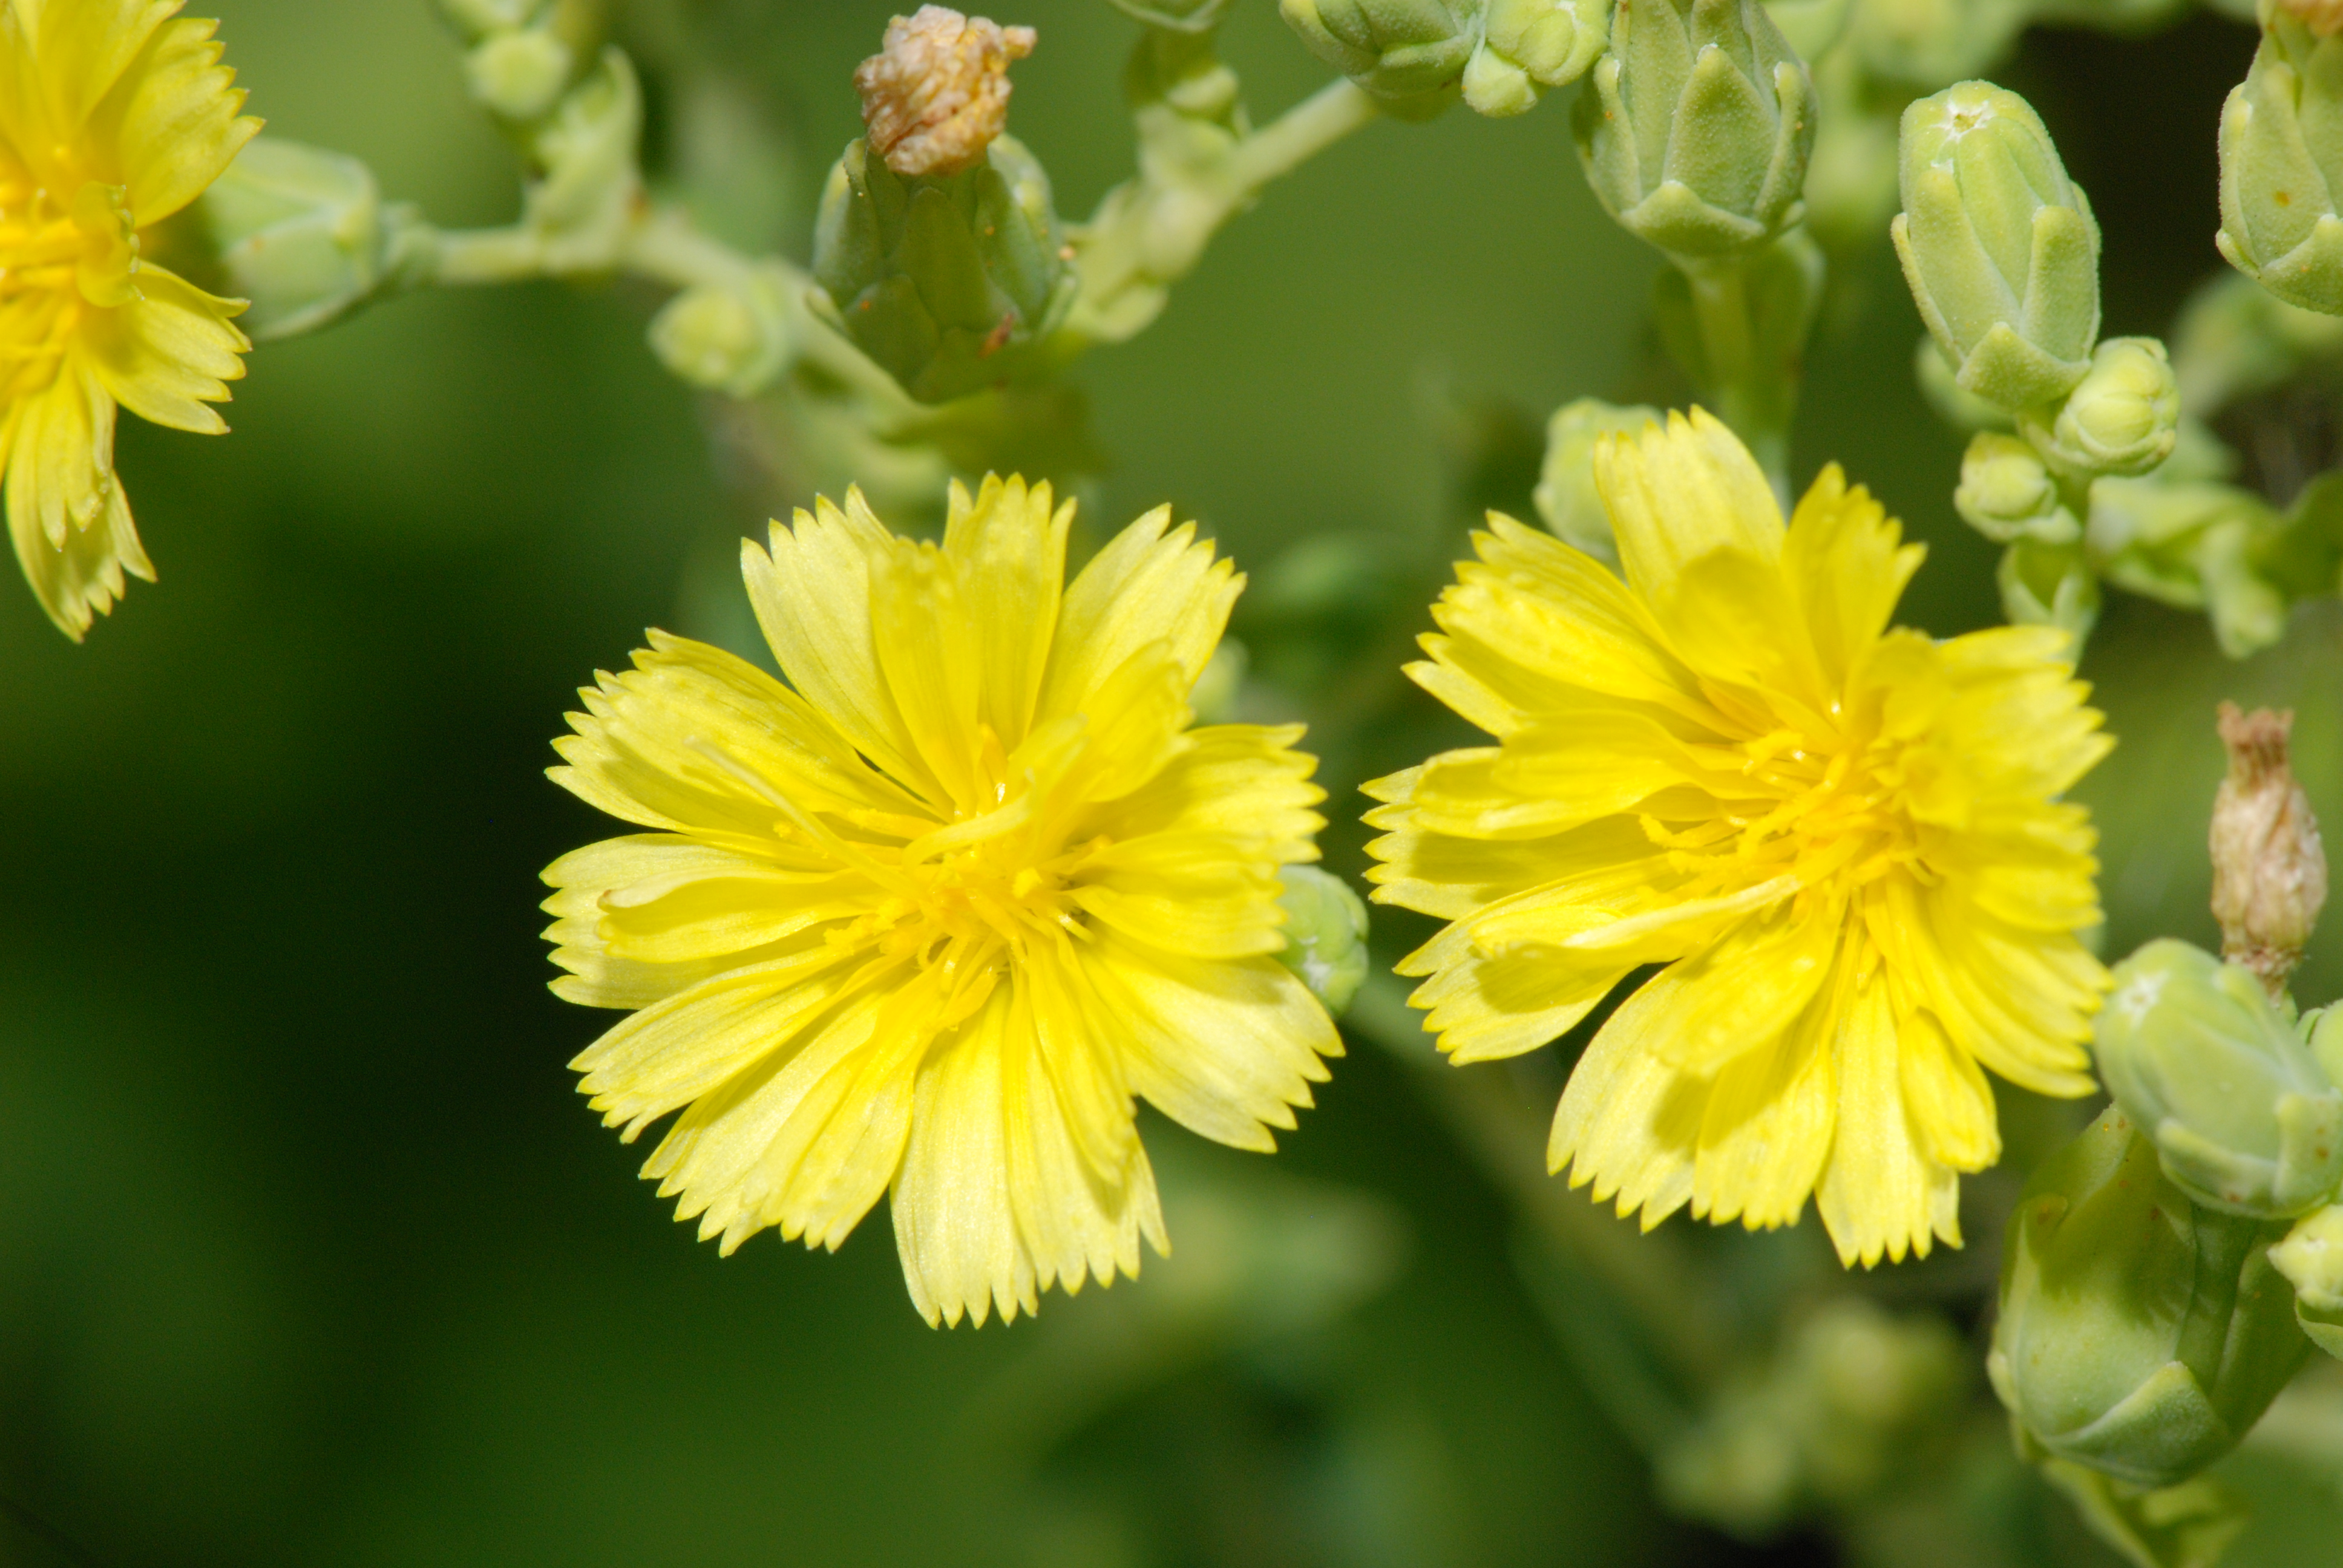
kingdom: Plantae
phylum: Tracheophyta
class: Magnoliopsida
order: Asterales
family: Asteraceae
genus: Lactuca
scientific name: Lactuca sativa
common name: Garden lettuce
